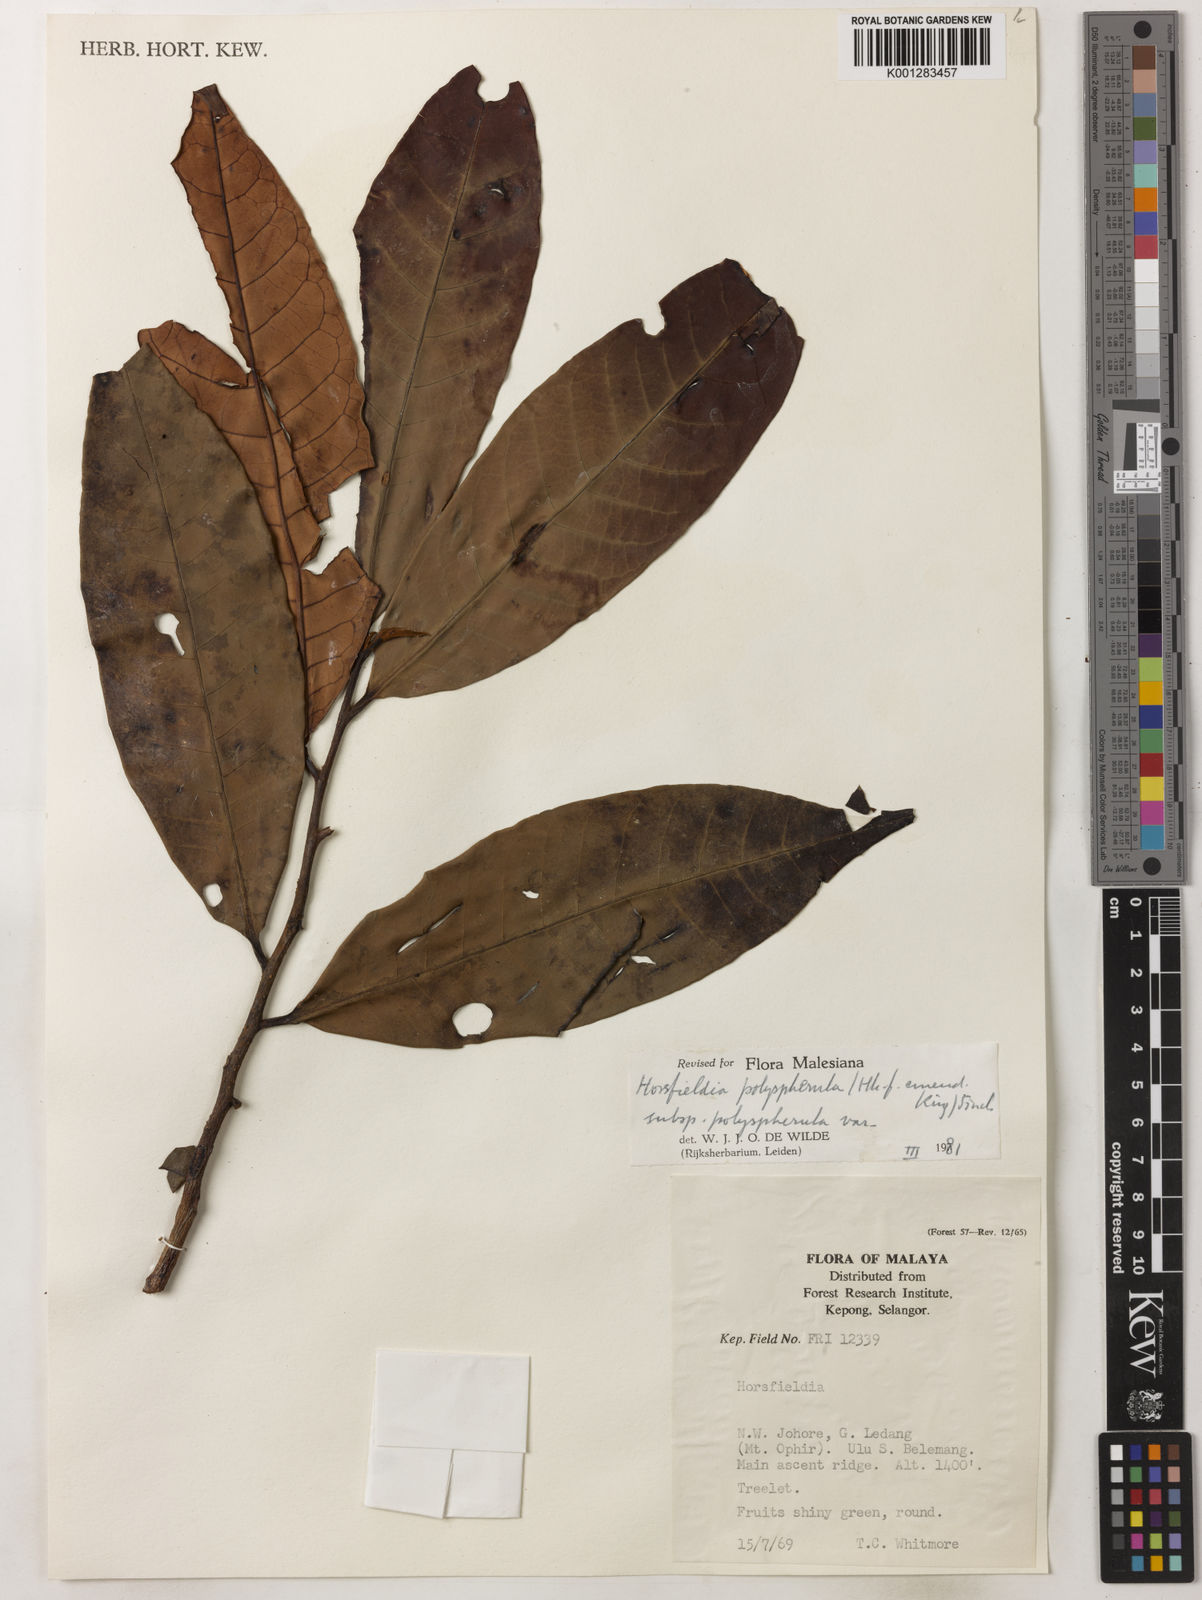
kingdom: Plantae
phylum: Tracheophyta
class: Magnoliopsida
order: Magnoliales
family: Myristicaceae
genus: Horsfieldia
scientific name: Horsfieldia polyspherula
